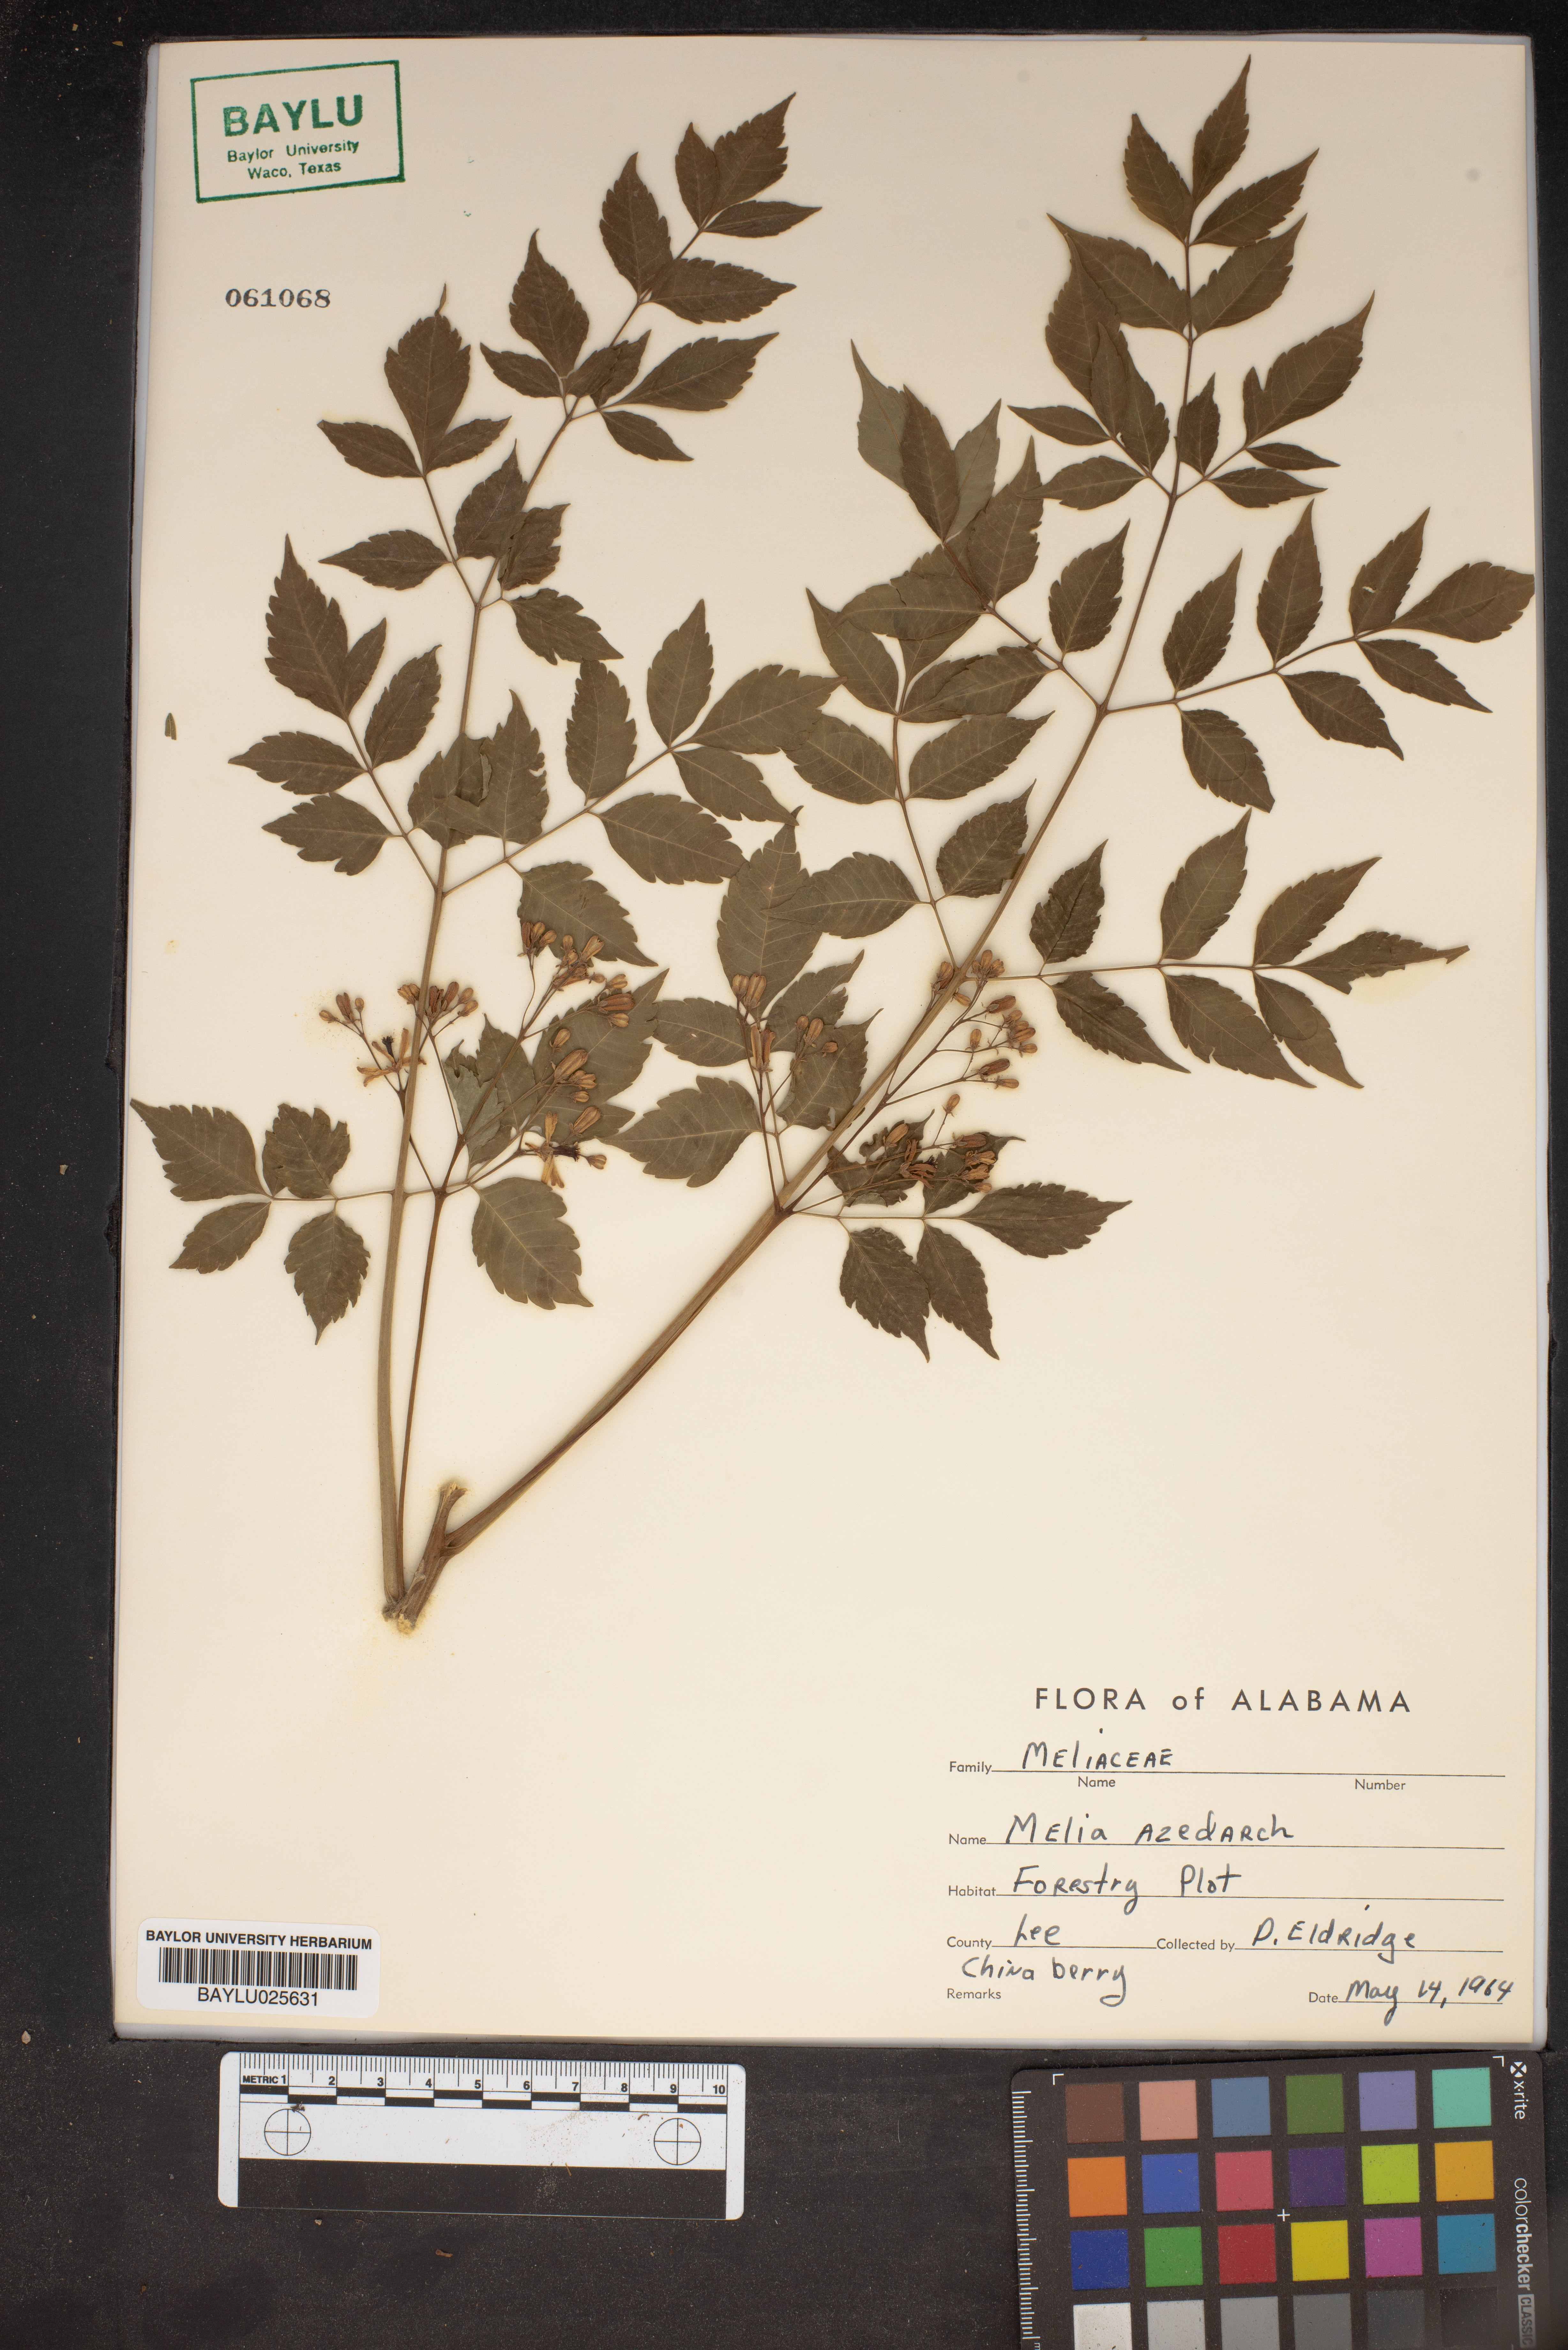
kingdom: Plantae
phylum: Tracheophyta
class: Magnoliopsida
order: Sapindales
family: Meliaceae
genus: Melia
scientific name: Melia azedarach
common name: Chinaberrytree
